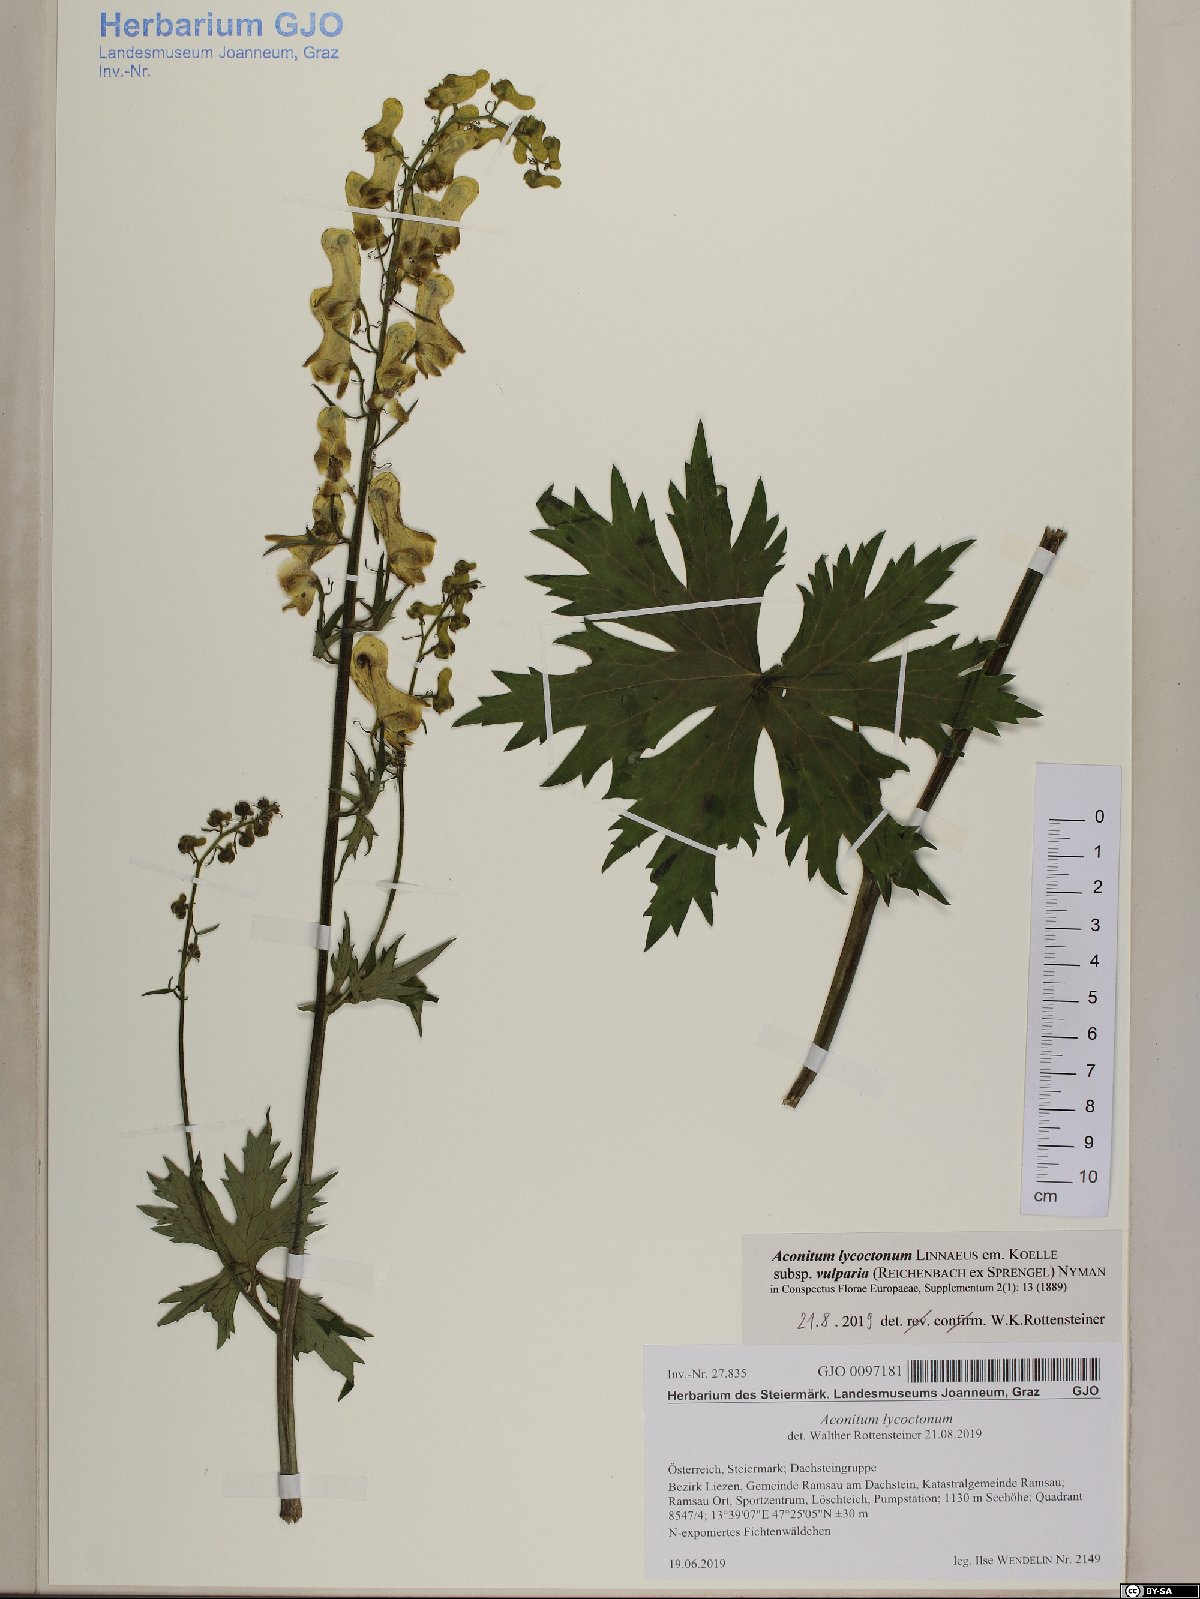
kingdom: Plantae
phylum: Tracheophyta
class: Magnoliopsida
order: Ranunculales
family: Ranunculaceae
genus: Aconitum
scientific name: Aconitum lycoctonum
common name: Wolf's-bane
